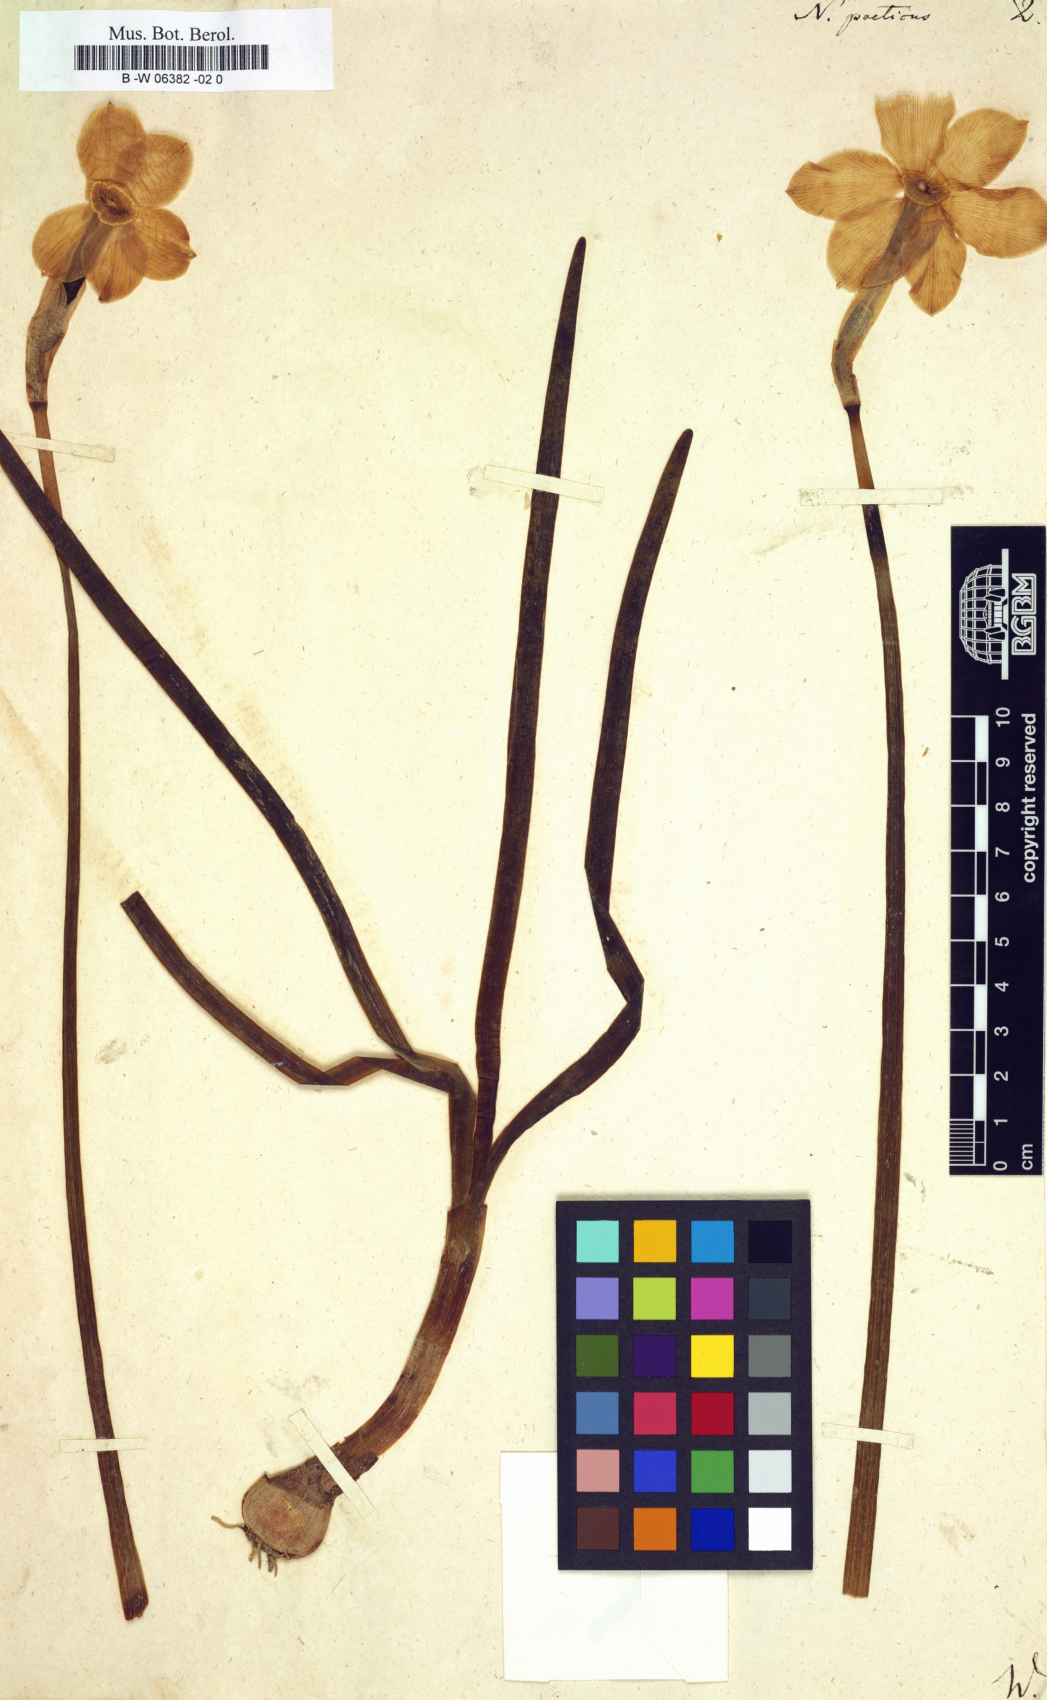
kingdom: Plantae
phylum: Tracheophyta
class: Liliopsida
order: Asparagales
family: Amaryllidaceae
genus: Narcissus
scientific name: Narcissus poeticus
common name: Pheasant's-eye daffodil
